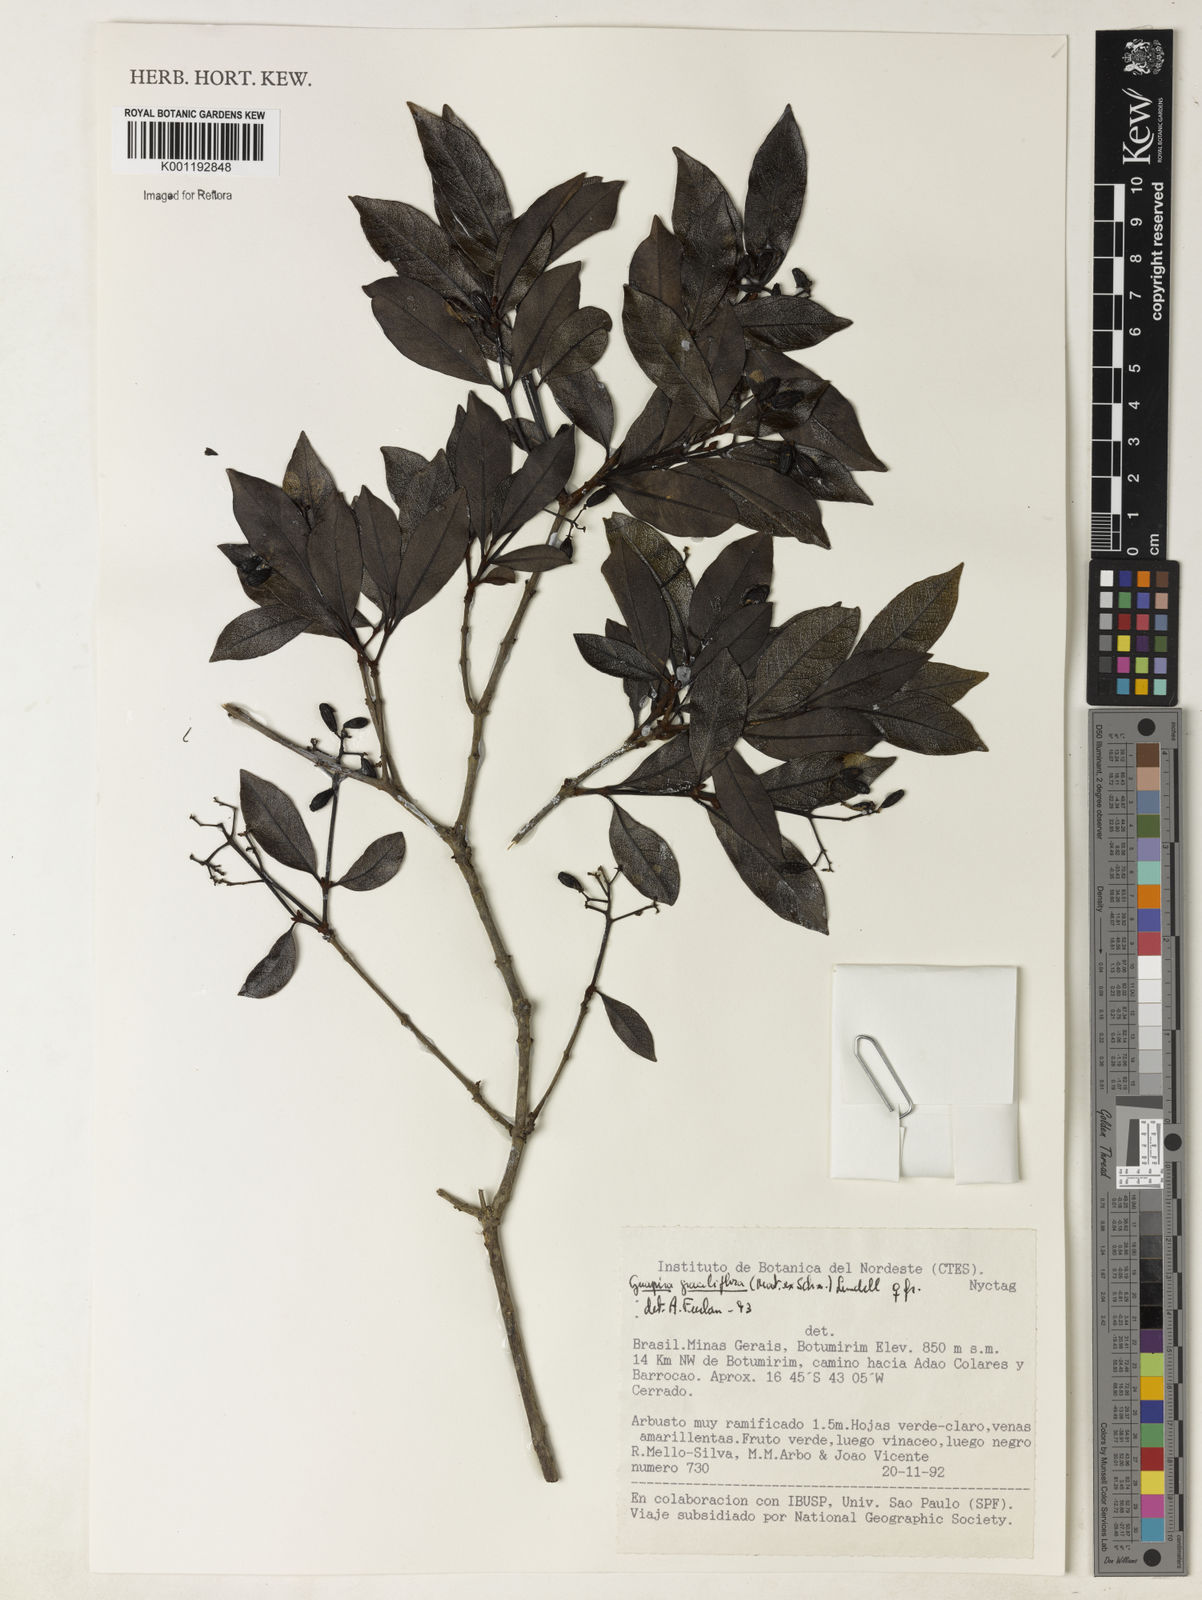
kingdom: Plantae
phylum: Tracheophyta
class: Magnoliopsida
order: Caryophyllales
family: Nyctaginaceae
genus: Guapira
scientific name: Guapira graciliflora
